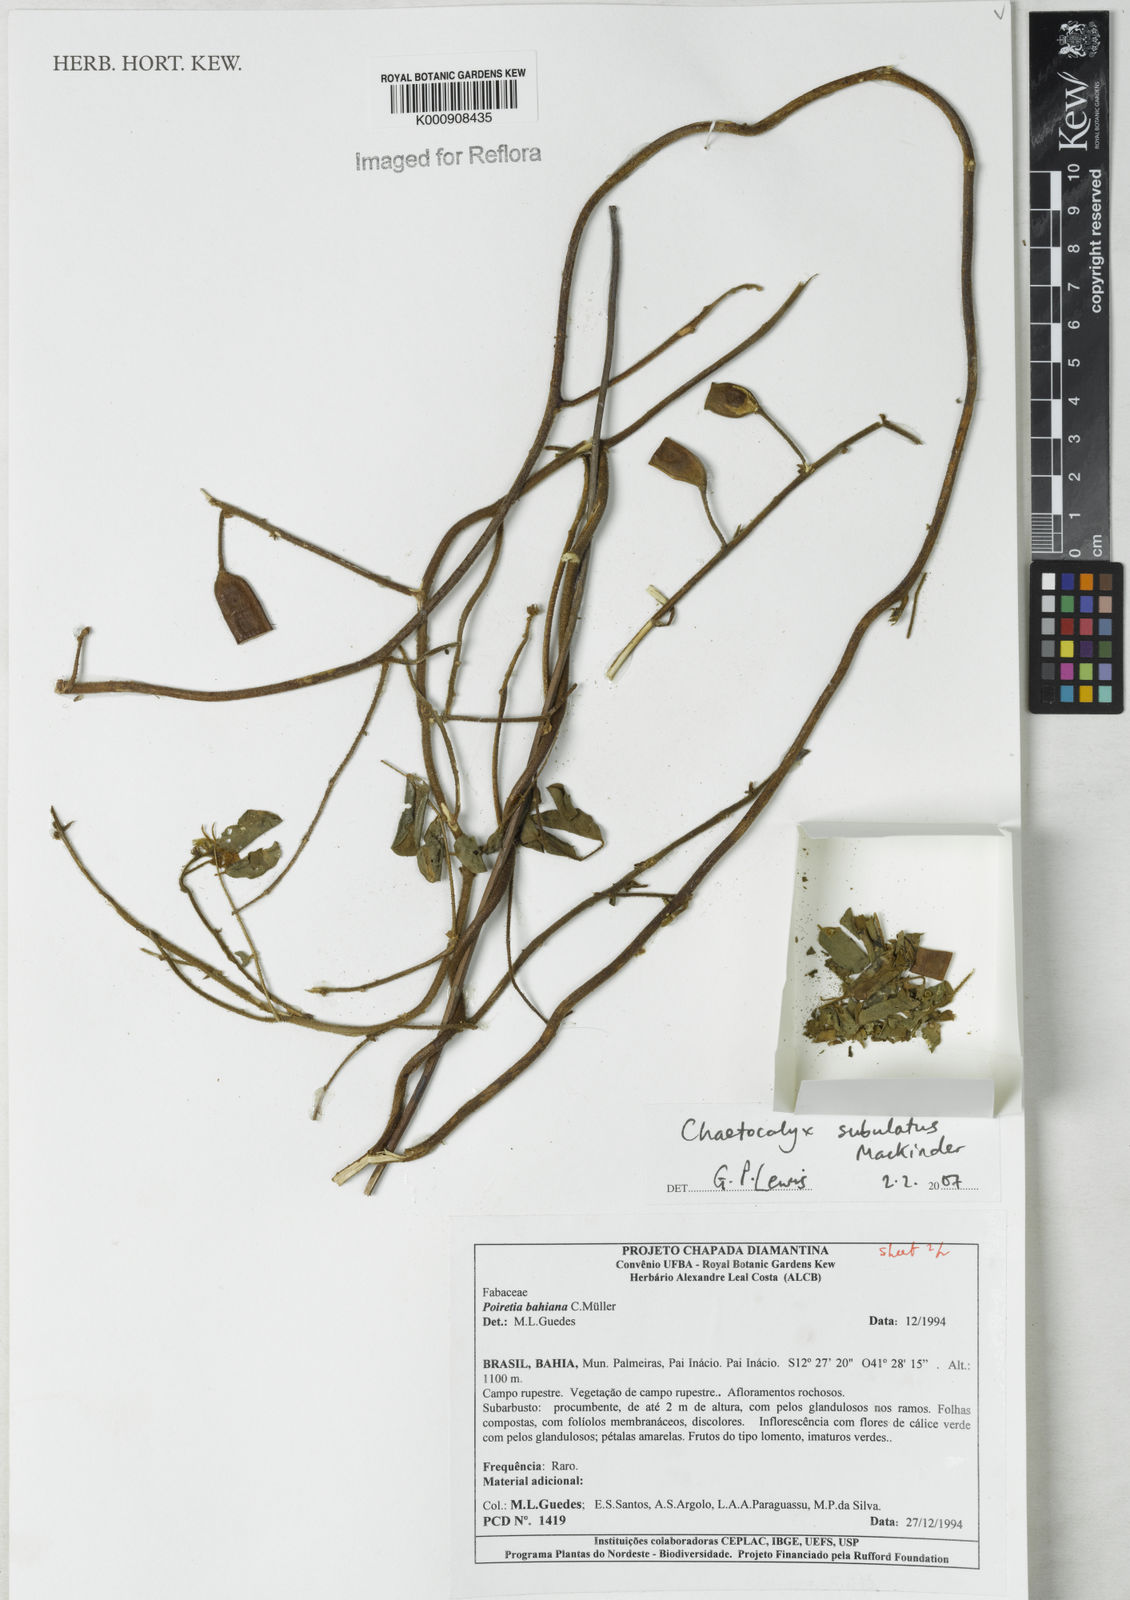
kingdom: Plantae
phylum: Tracheophyta
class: Magnoliopsida
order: Fabales
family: Fabaceae
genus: Nissolia
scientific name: Nissolia subulata
